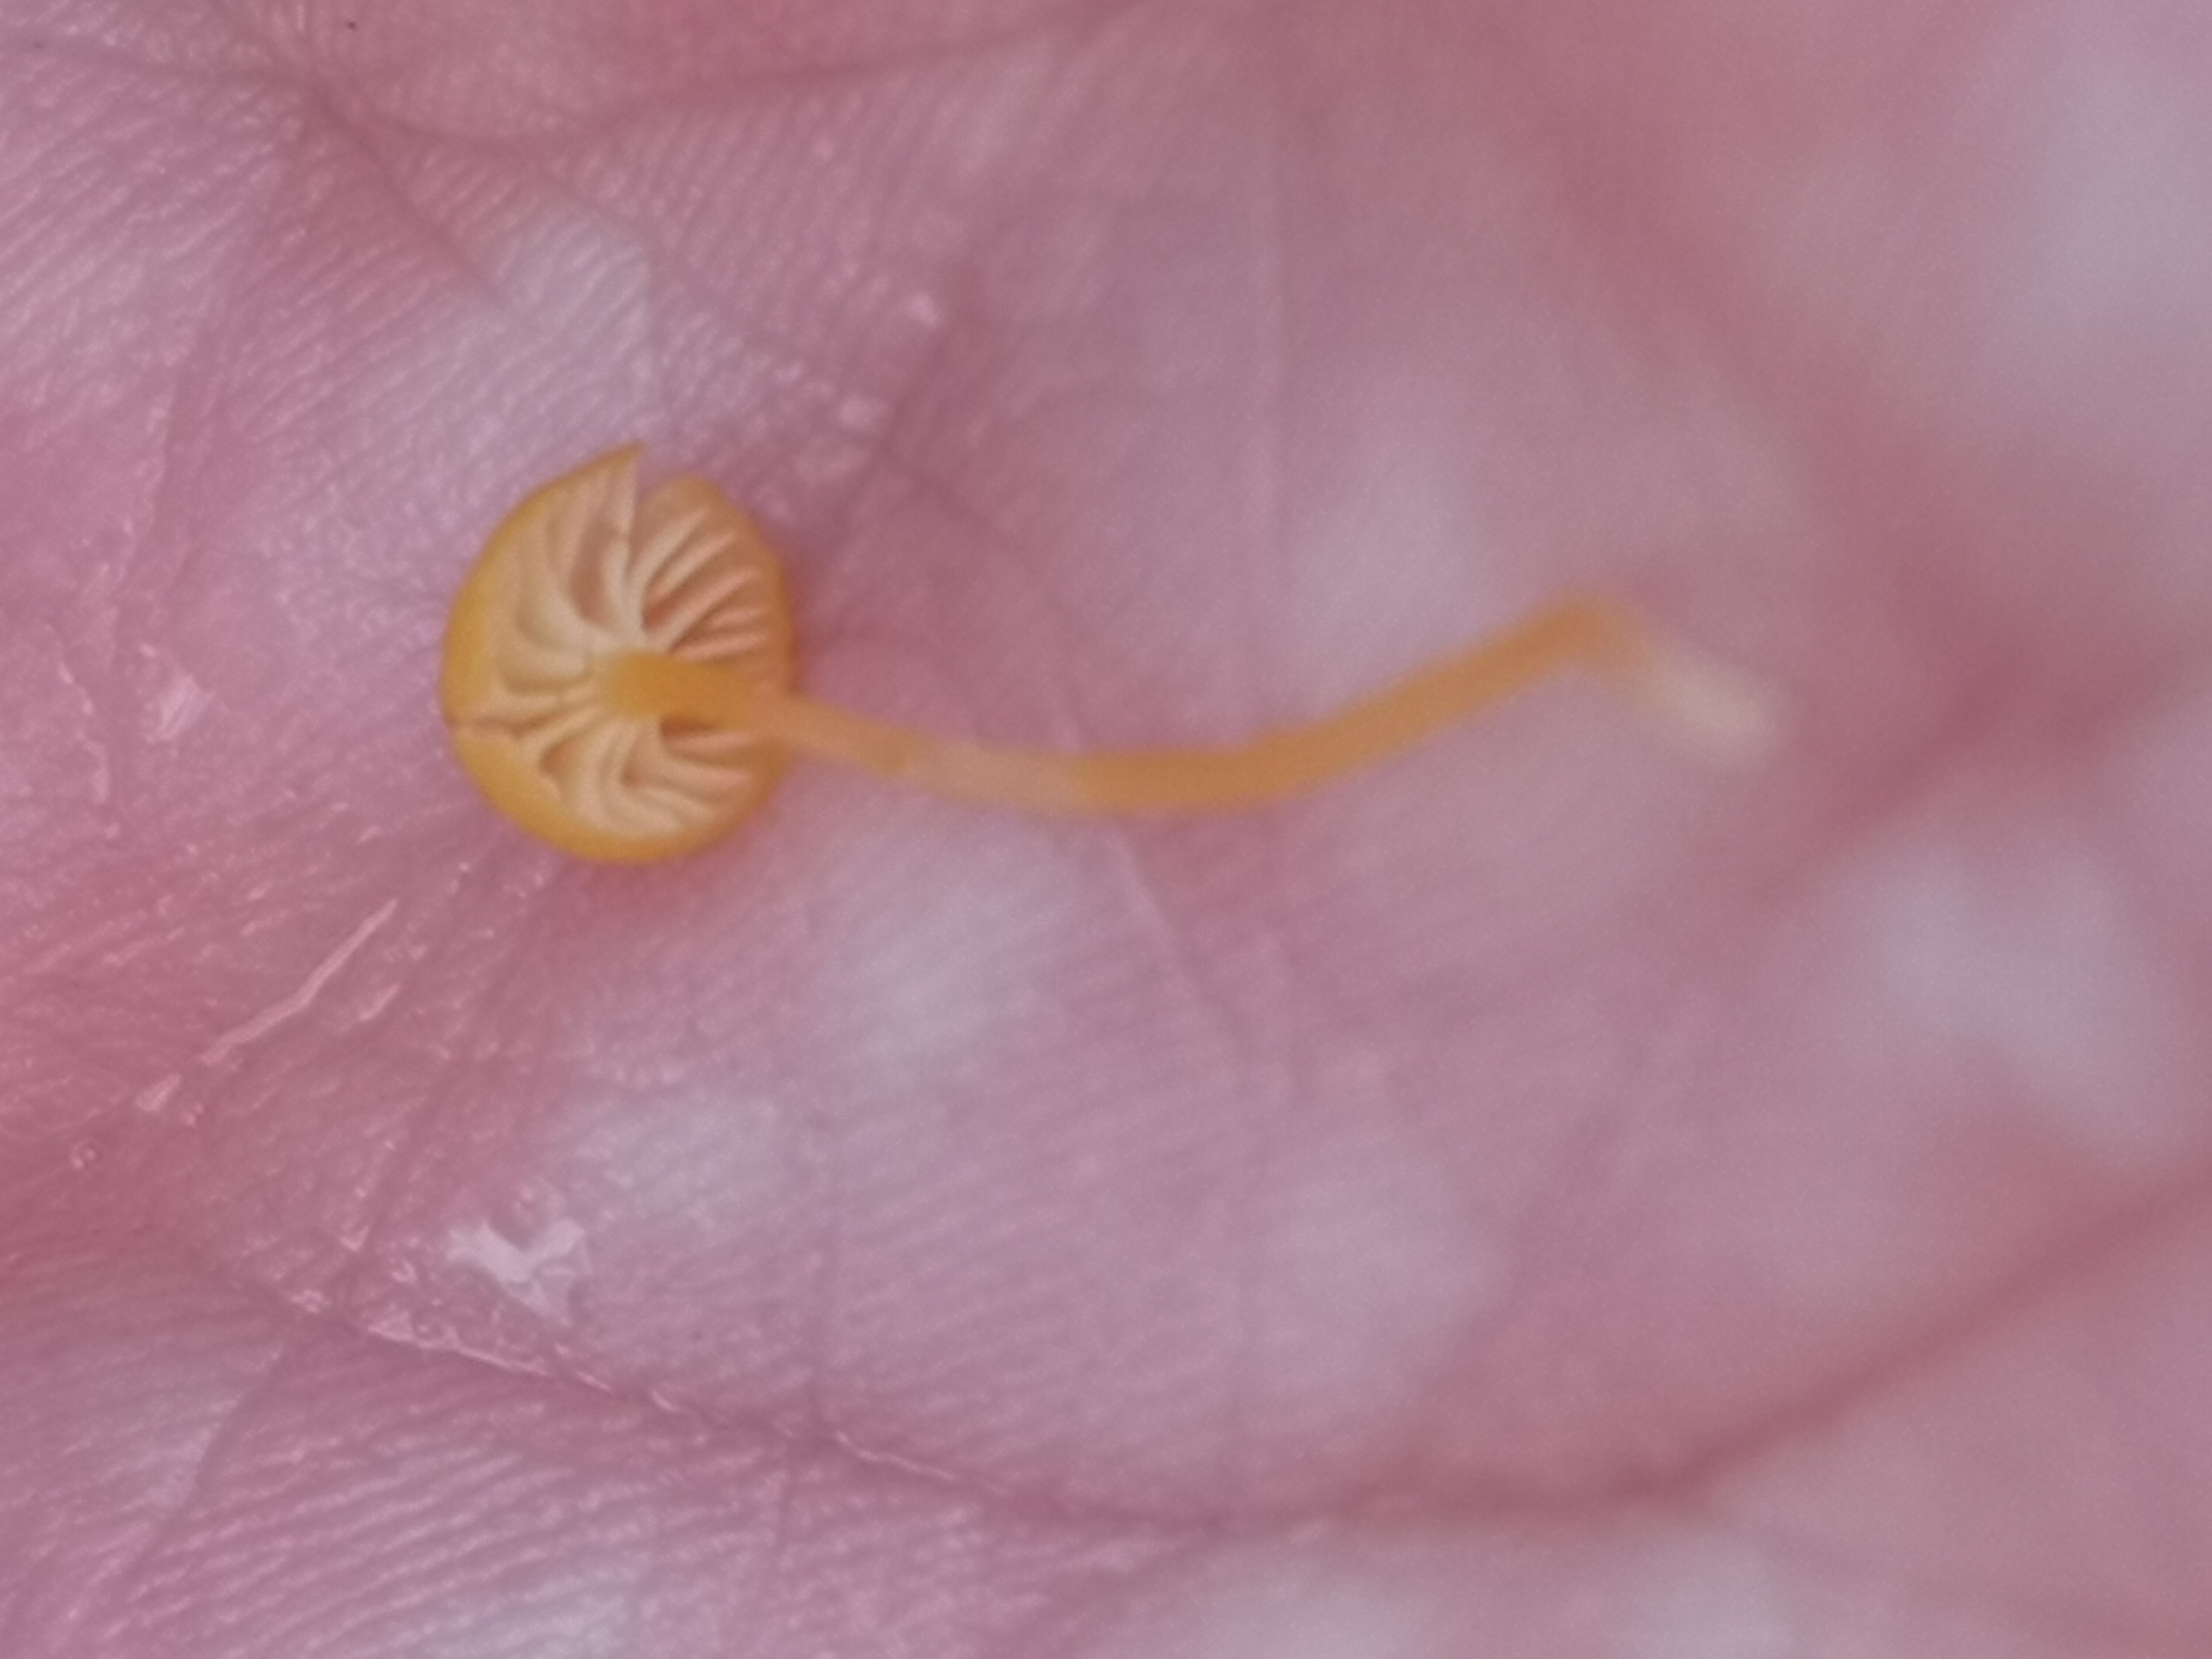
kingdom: Fungi
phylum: Basidiomycota
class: Agaricomycetes
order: Hymenochaetales
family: Rickenellaceae
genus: Rickenella
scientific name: Rickenella fibula
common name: orange mosnavlehat
